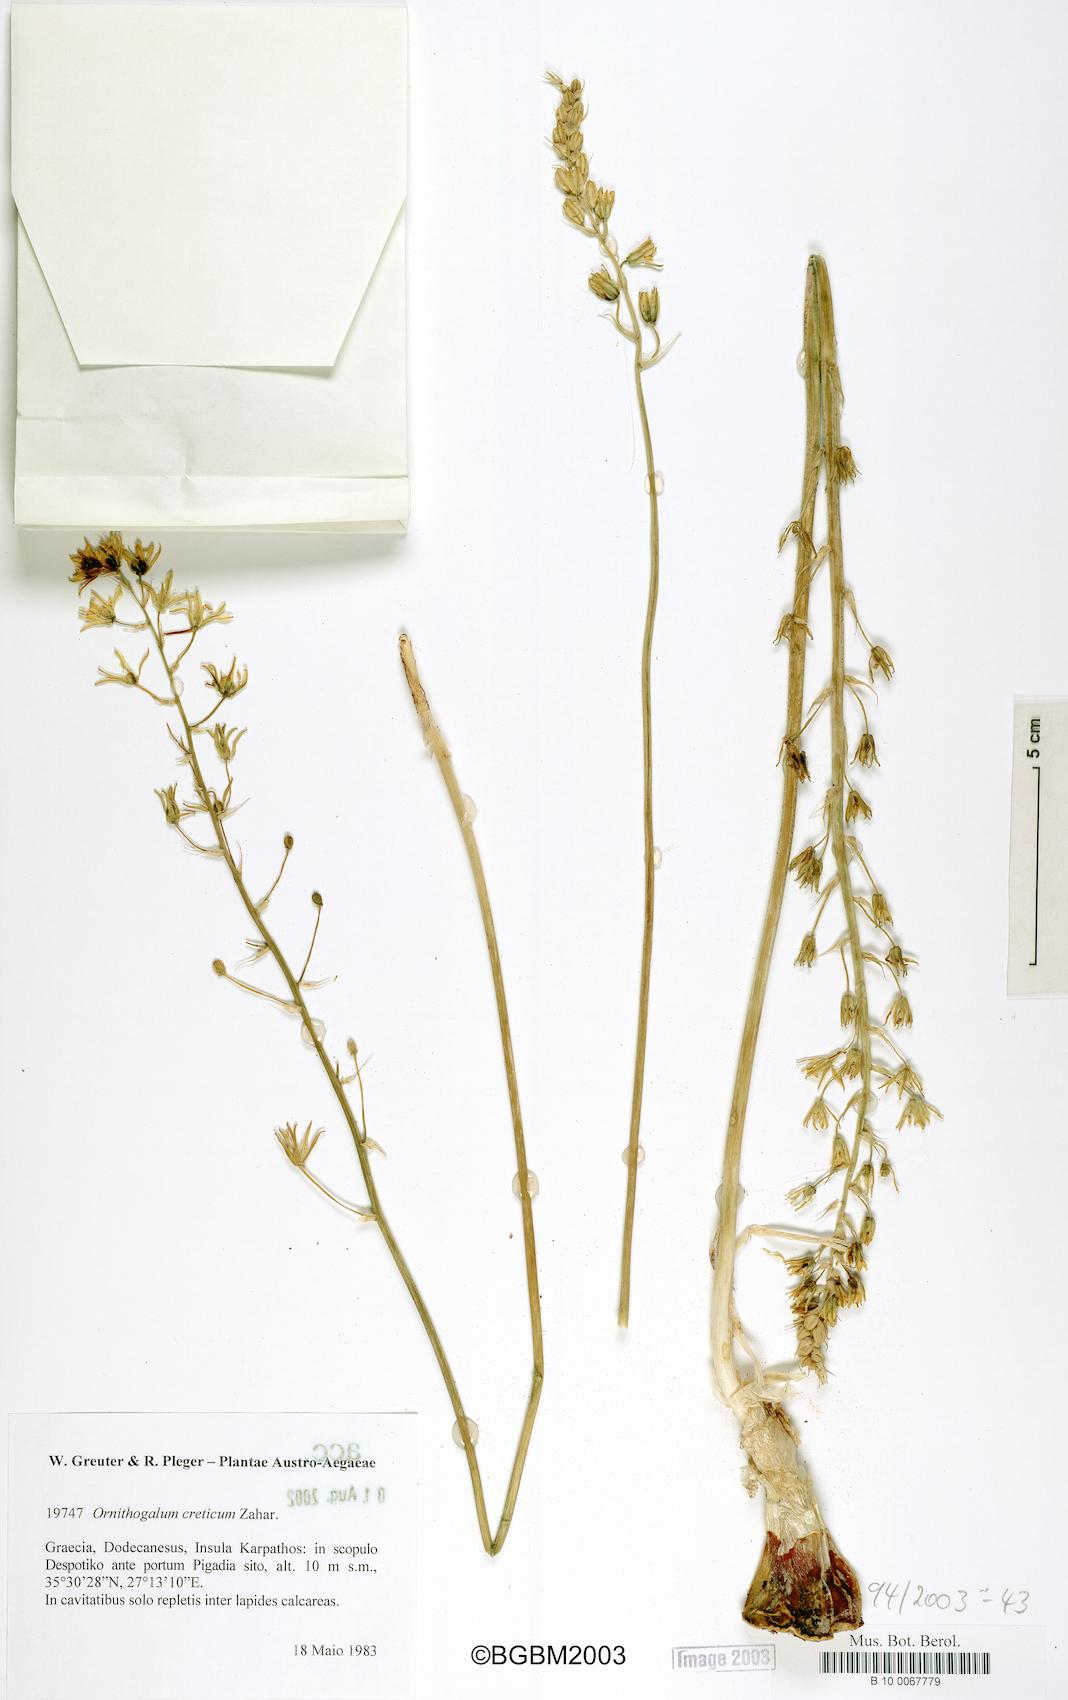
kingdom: Plantae
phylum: Tracheophyta
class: Liliopsida
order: Asparagales
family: Asparagaceae
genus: Ornithogalum
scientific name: Ornithogalum creticum
